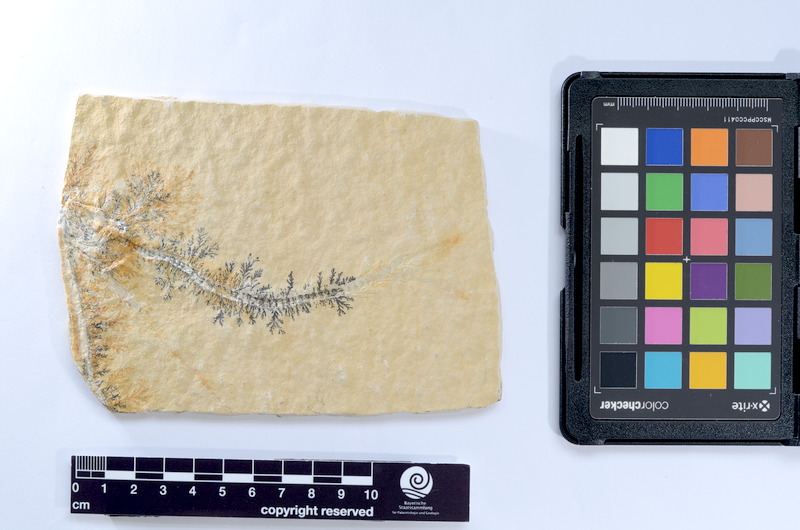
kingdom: Animalia
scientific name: Animalia
